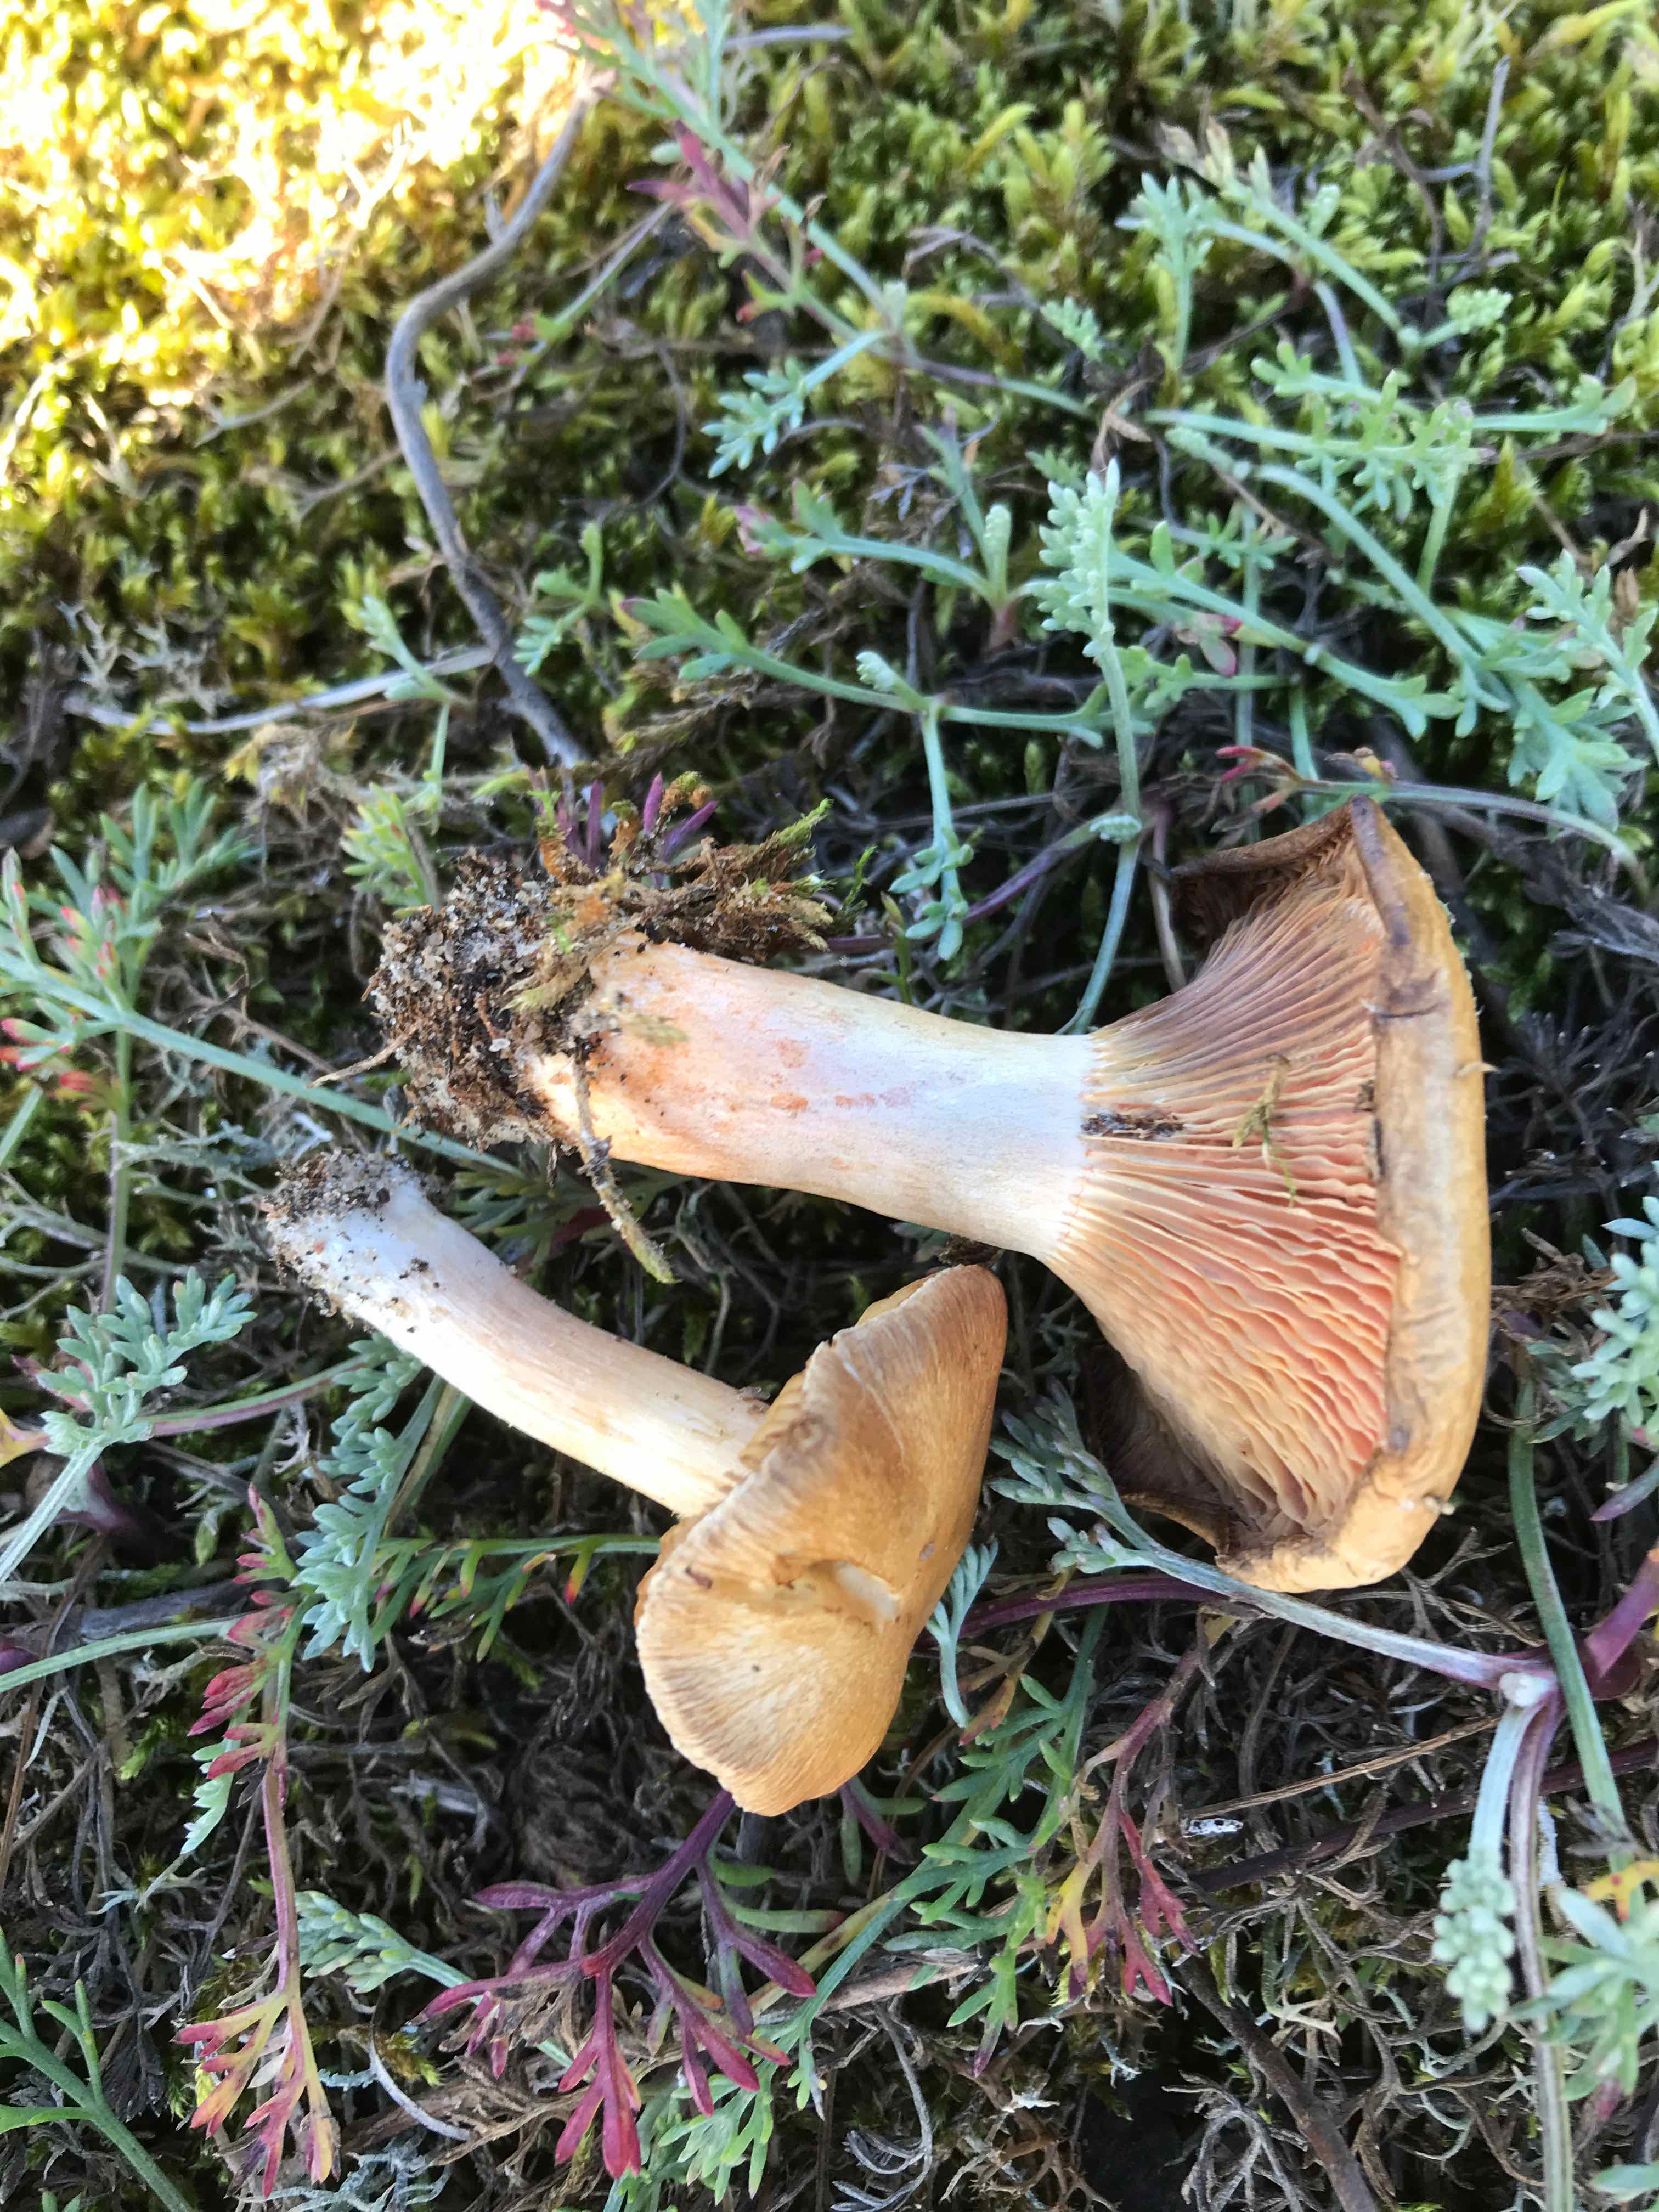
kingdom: Fungi
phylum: Basidiomycota
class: Agaricomycetes
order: Russulales
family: Russulaceae
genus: Lactarius
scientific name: Lactarius deliciosus
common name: velsmagende mælkehat
